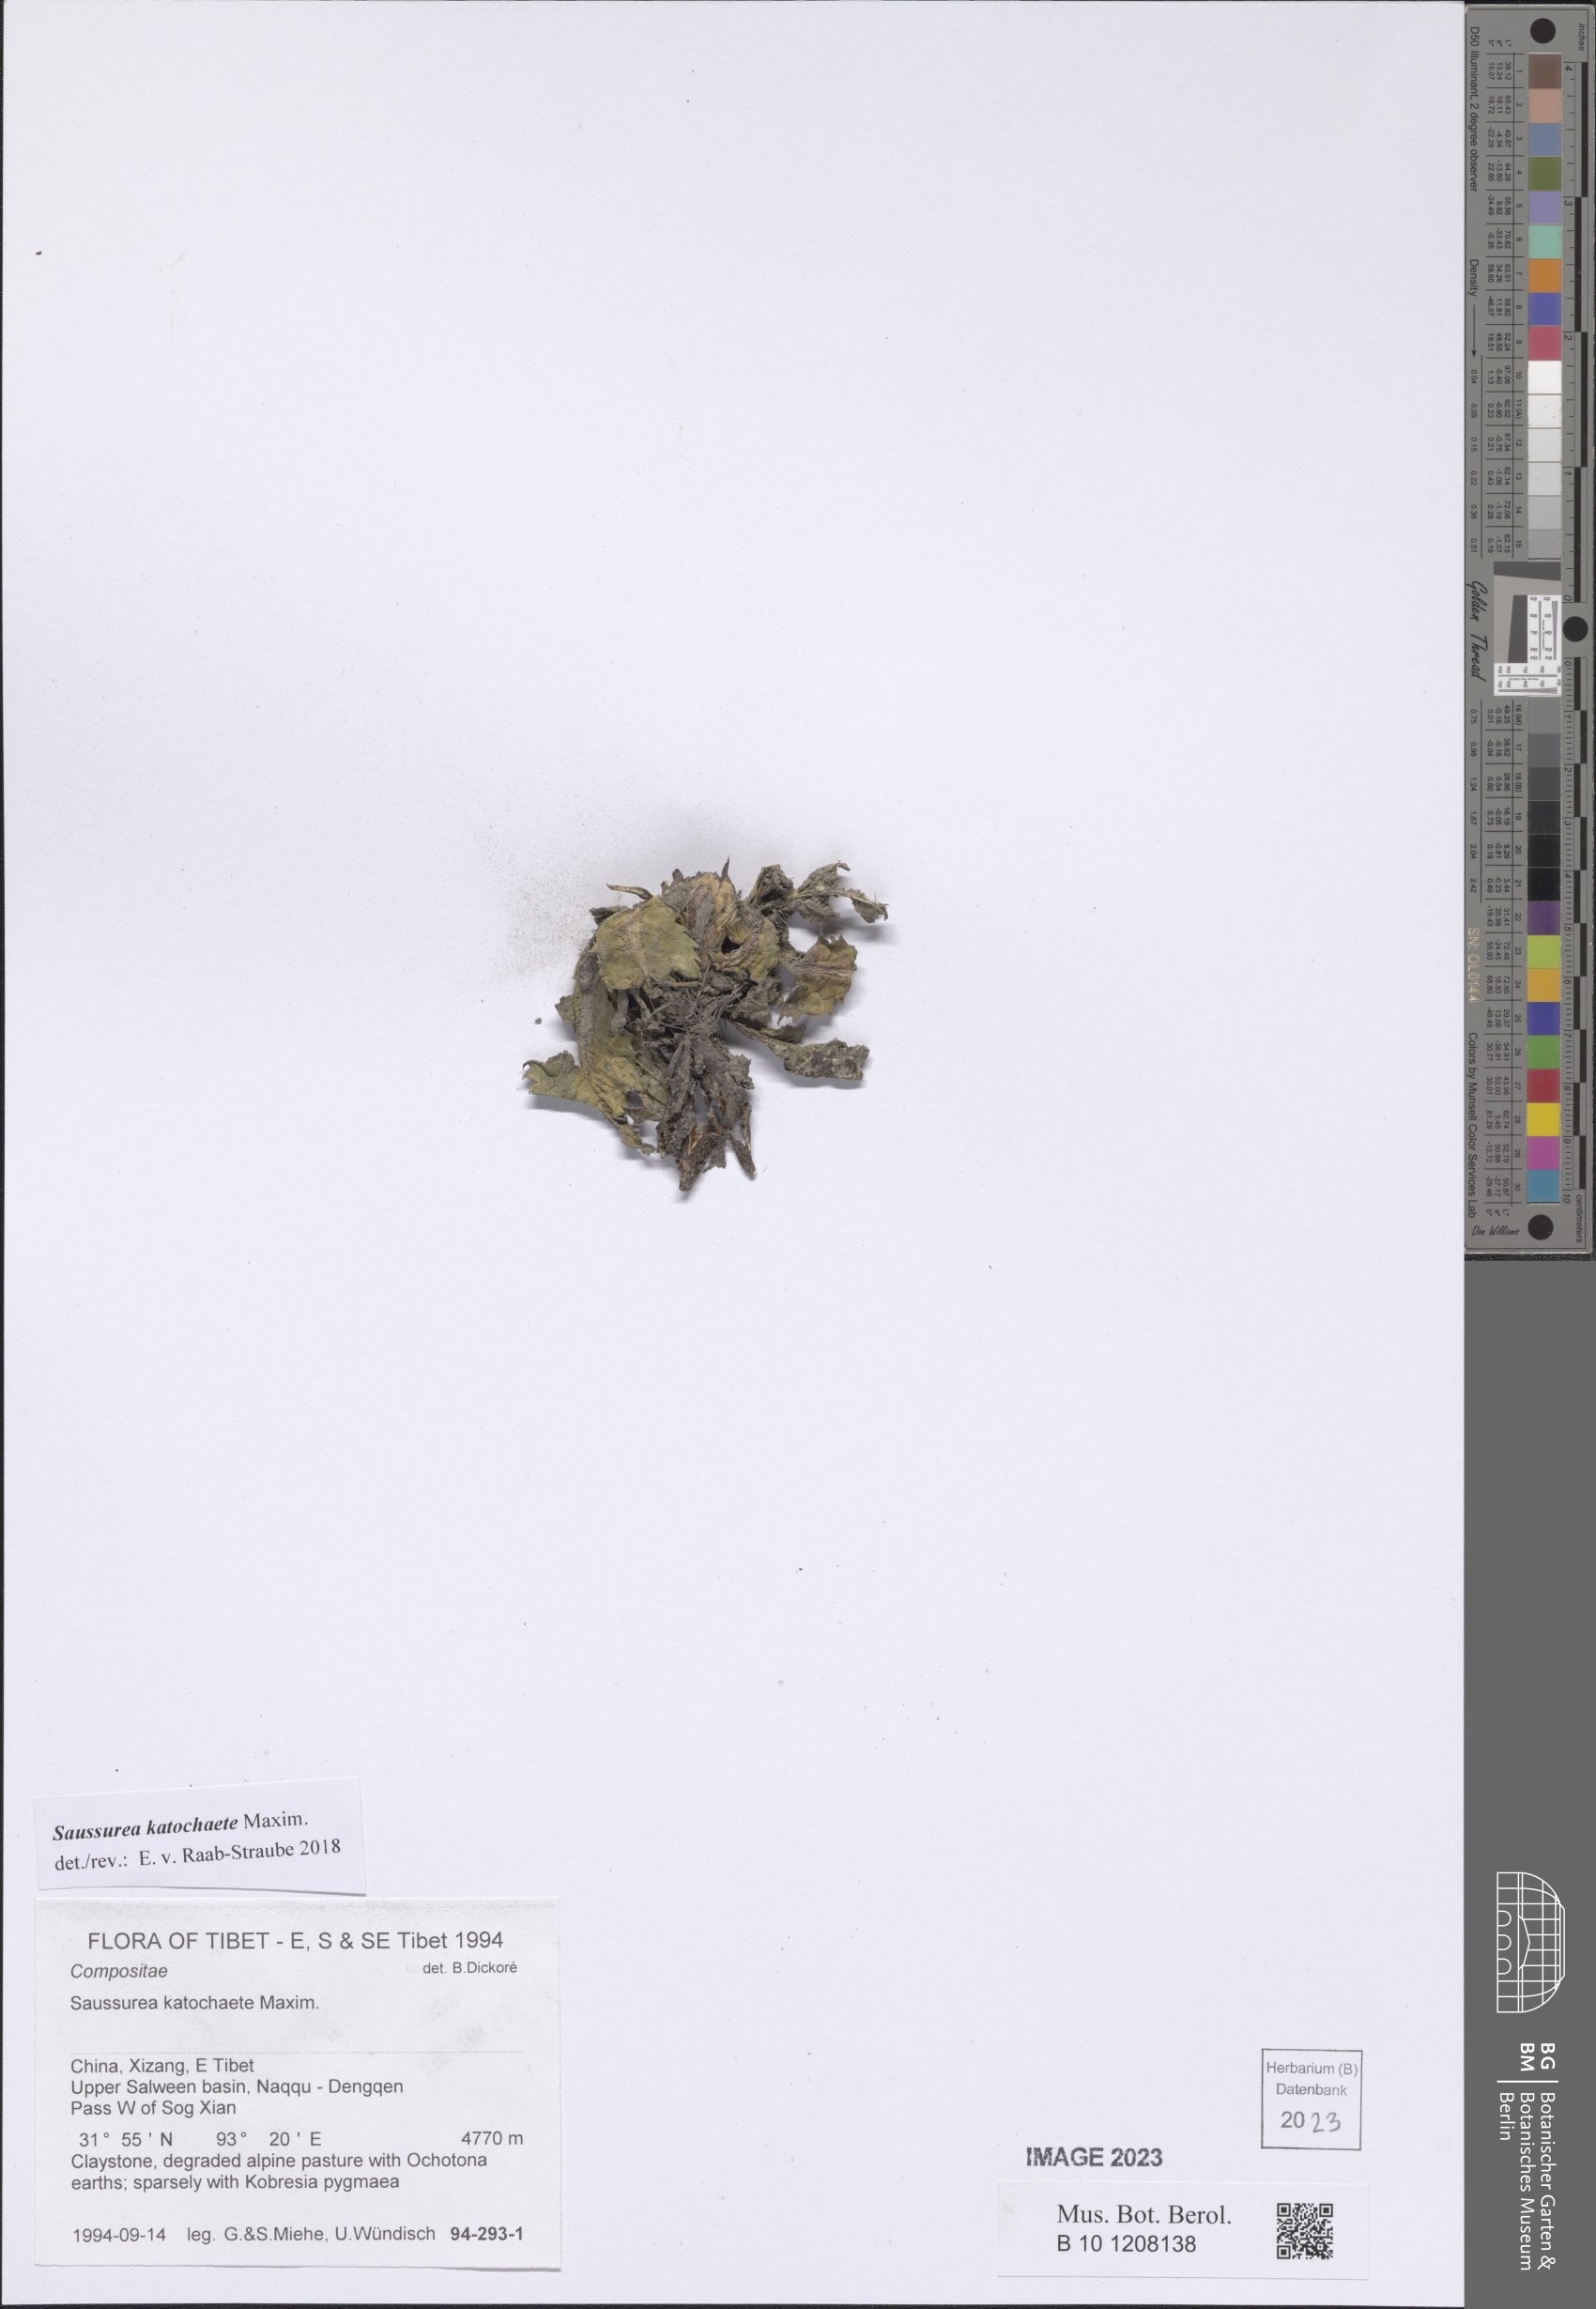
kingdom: Plantae
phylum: Tracheophyta
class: Magnoliopsida
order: Asterales
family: Asteraceae
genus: Saussurea
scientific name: Saussurea katochaete
